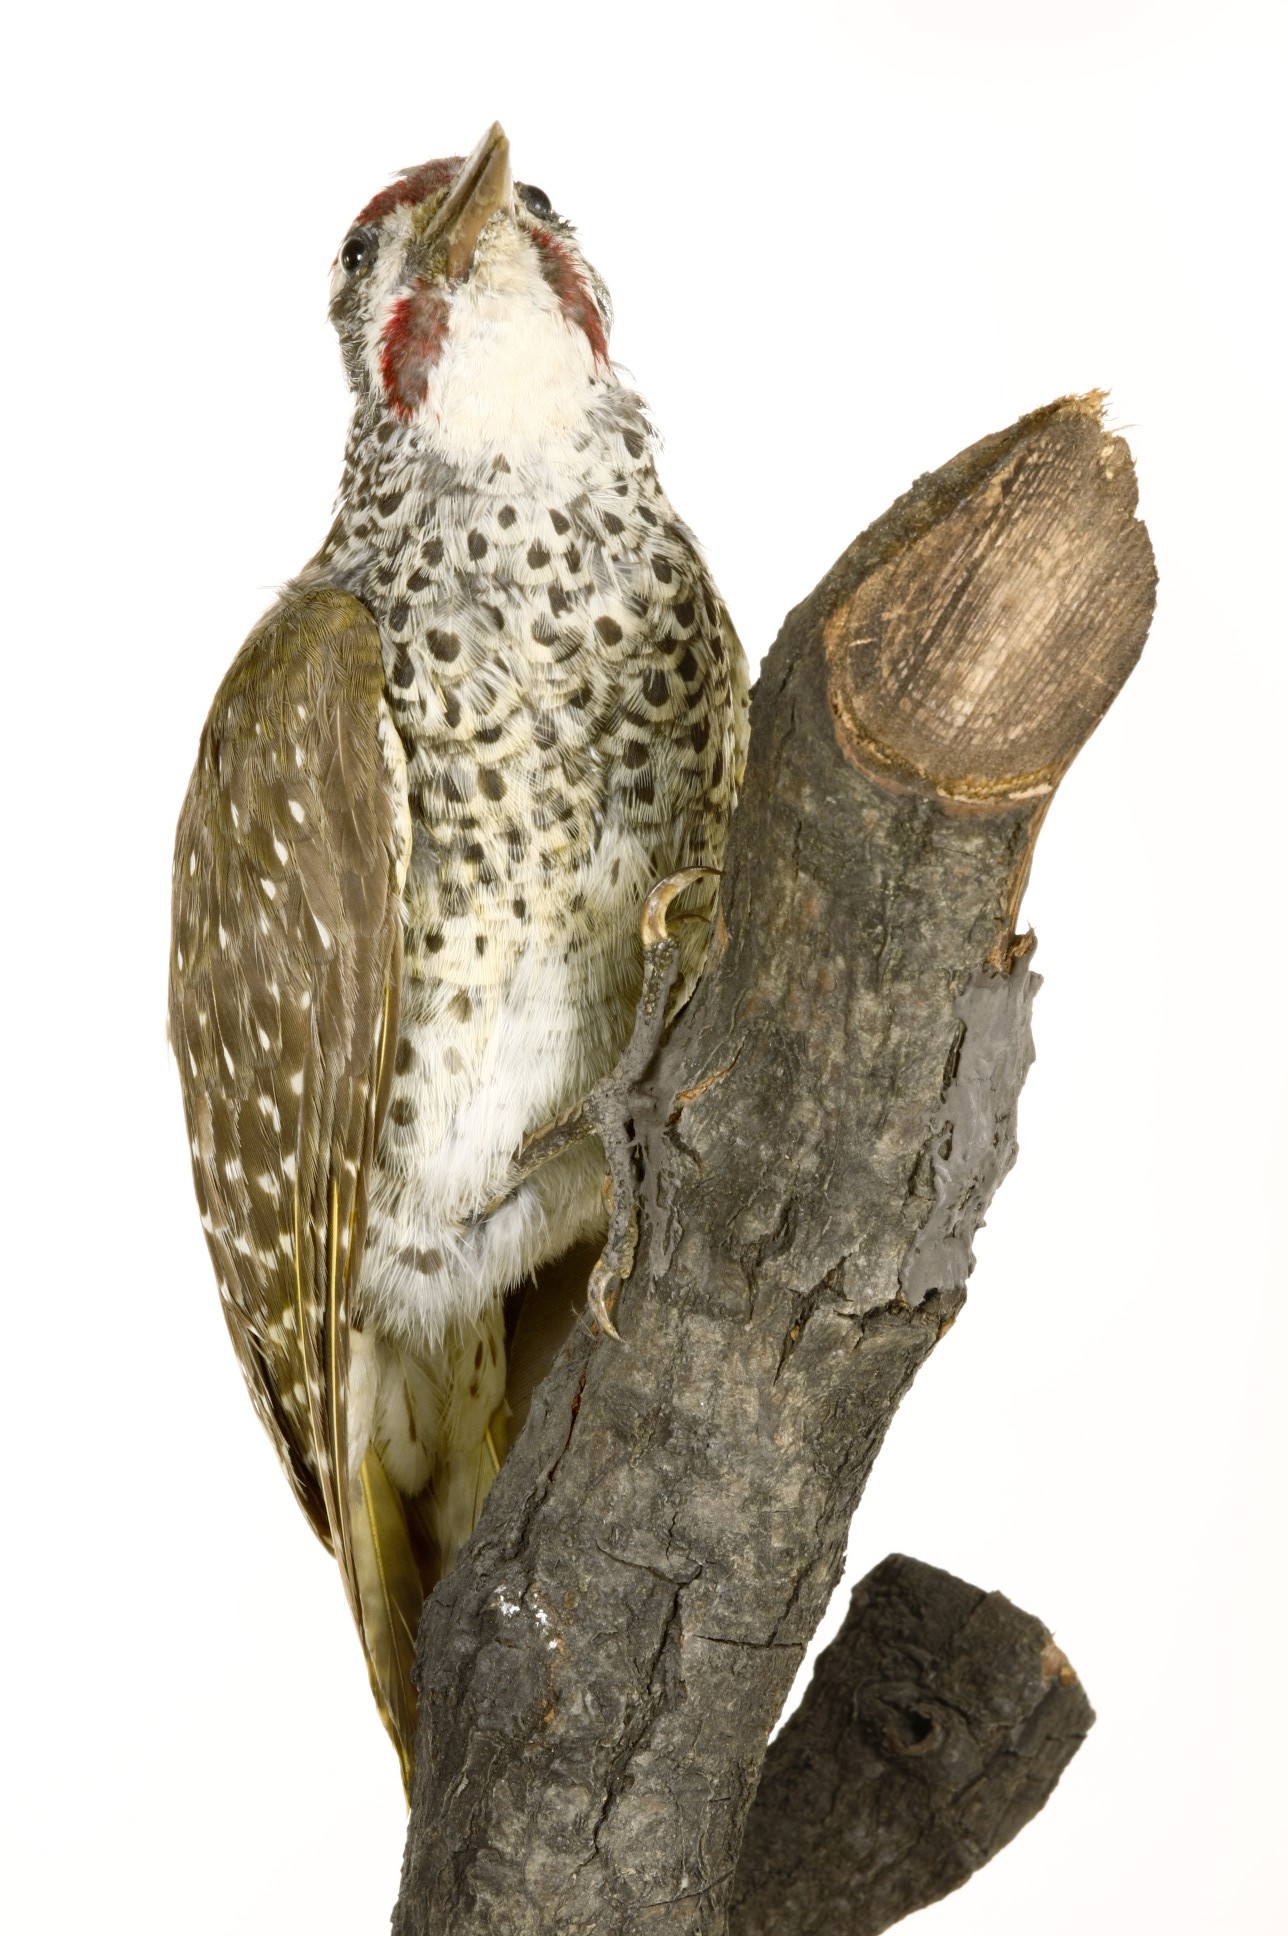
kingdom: Animalia
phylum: Chordata
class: Aves
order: Piciformes
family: Picidae
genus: Campethera
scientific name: Campethera nubica
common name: Nubian woodpecker
